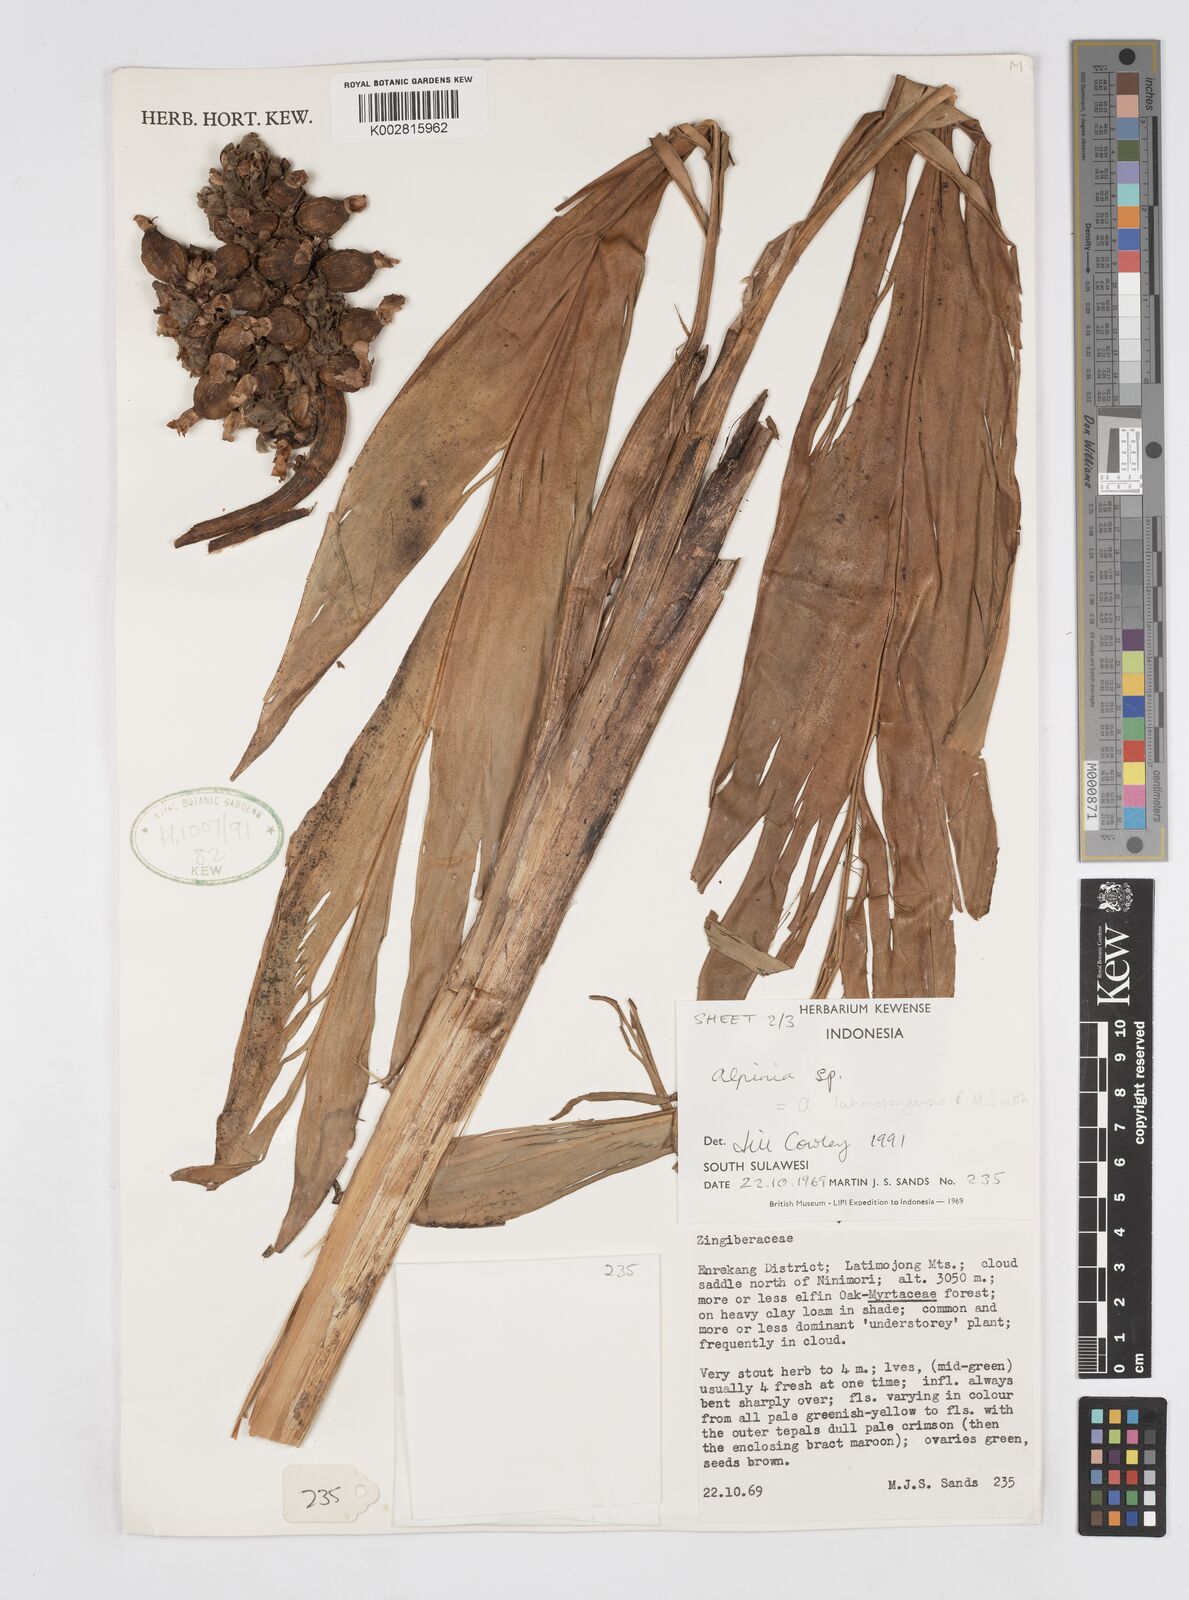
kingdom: Plantae
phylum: Tracheophyta
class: Liliopsida
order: Zingiberales
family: Zingiberaceae
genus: Alpinia
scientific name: Alpinia
